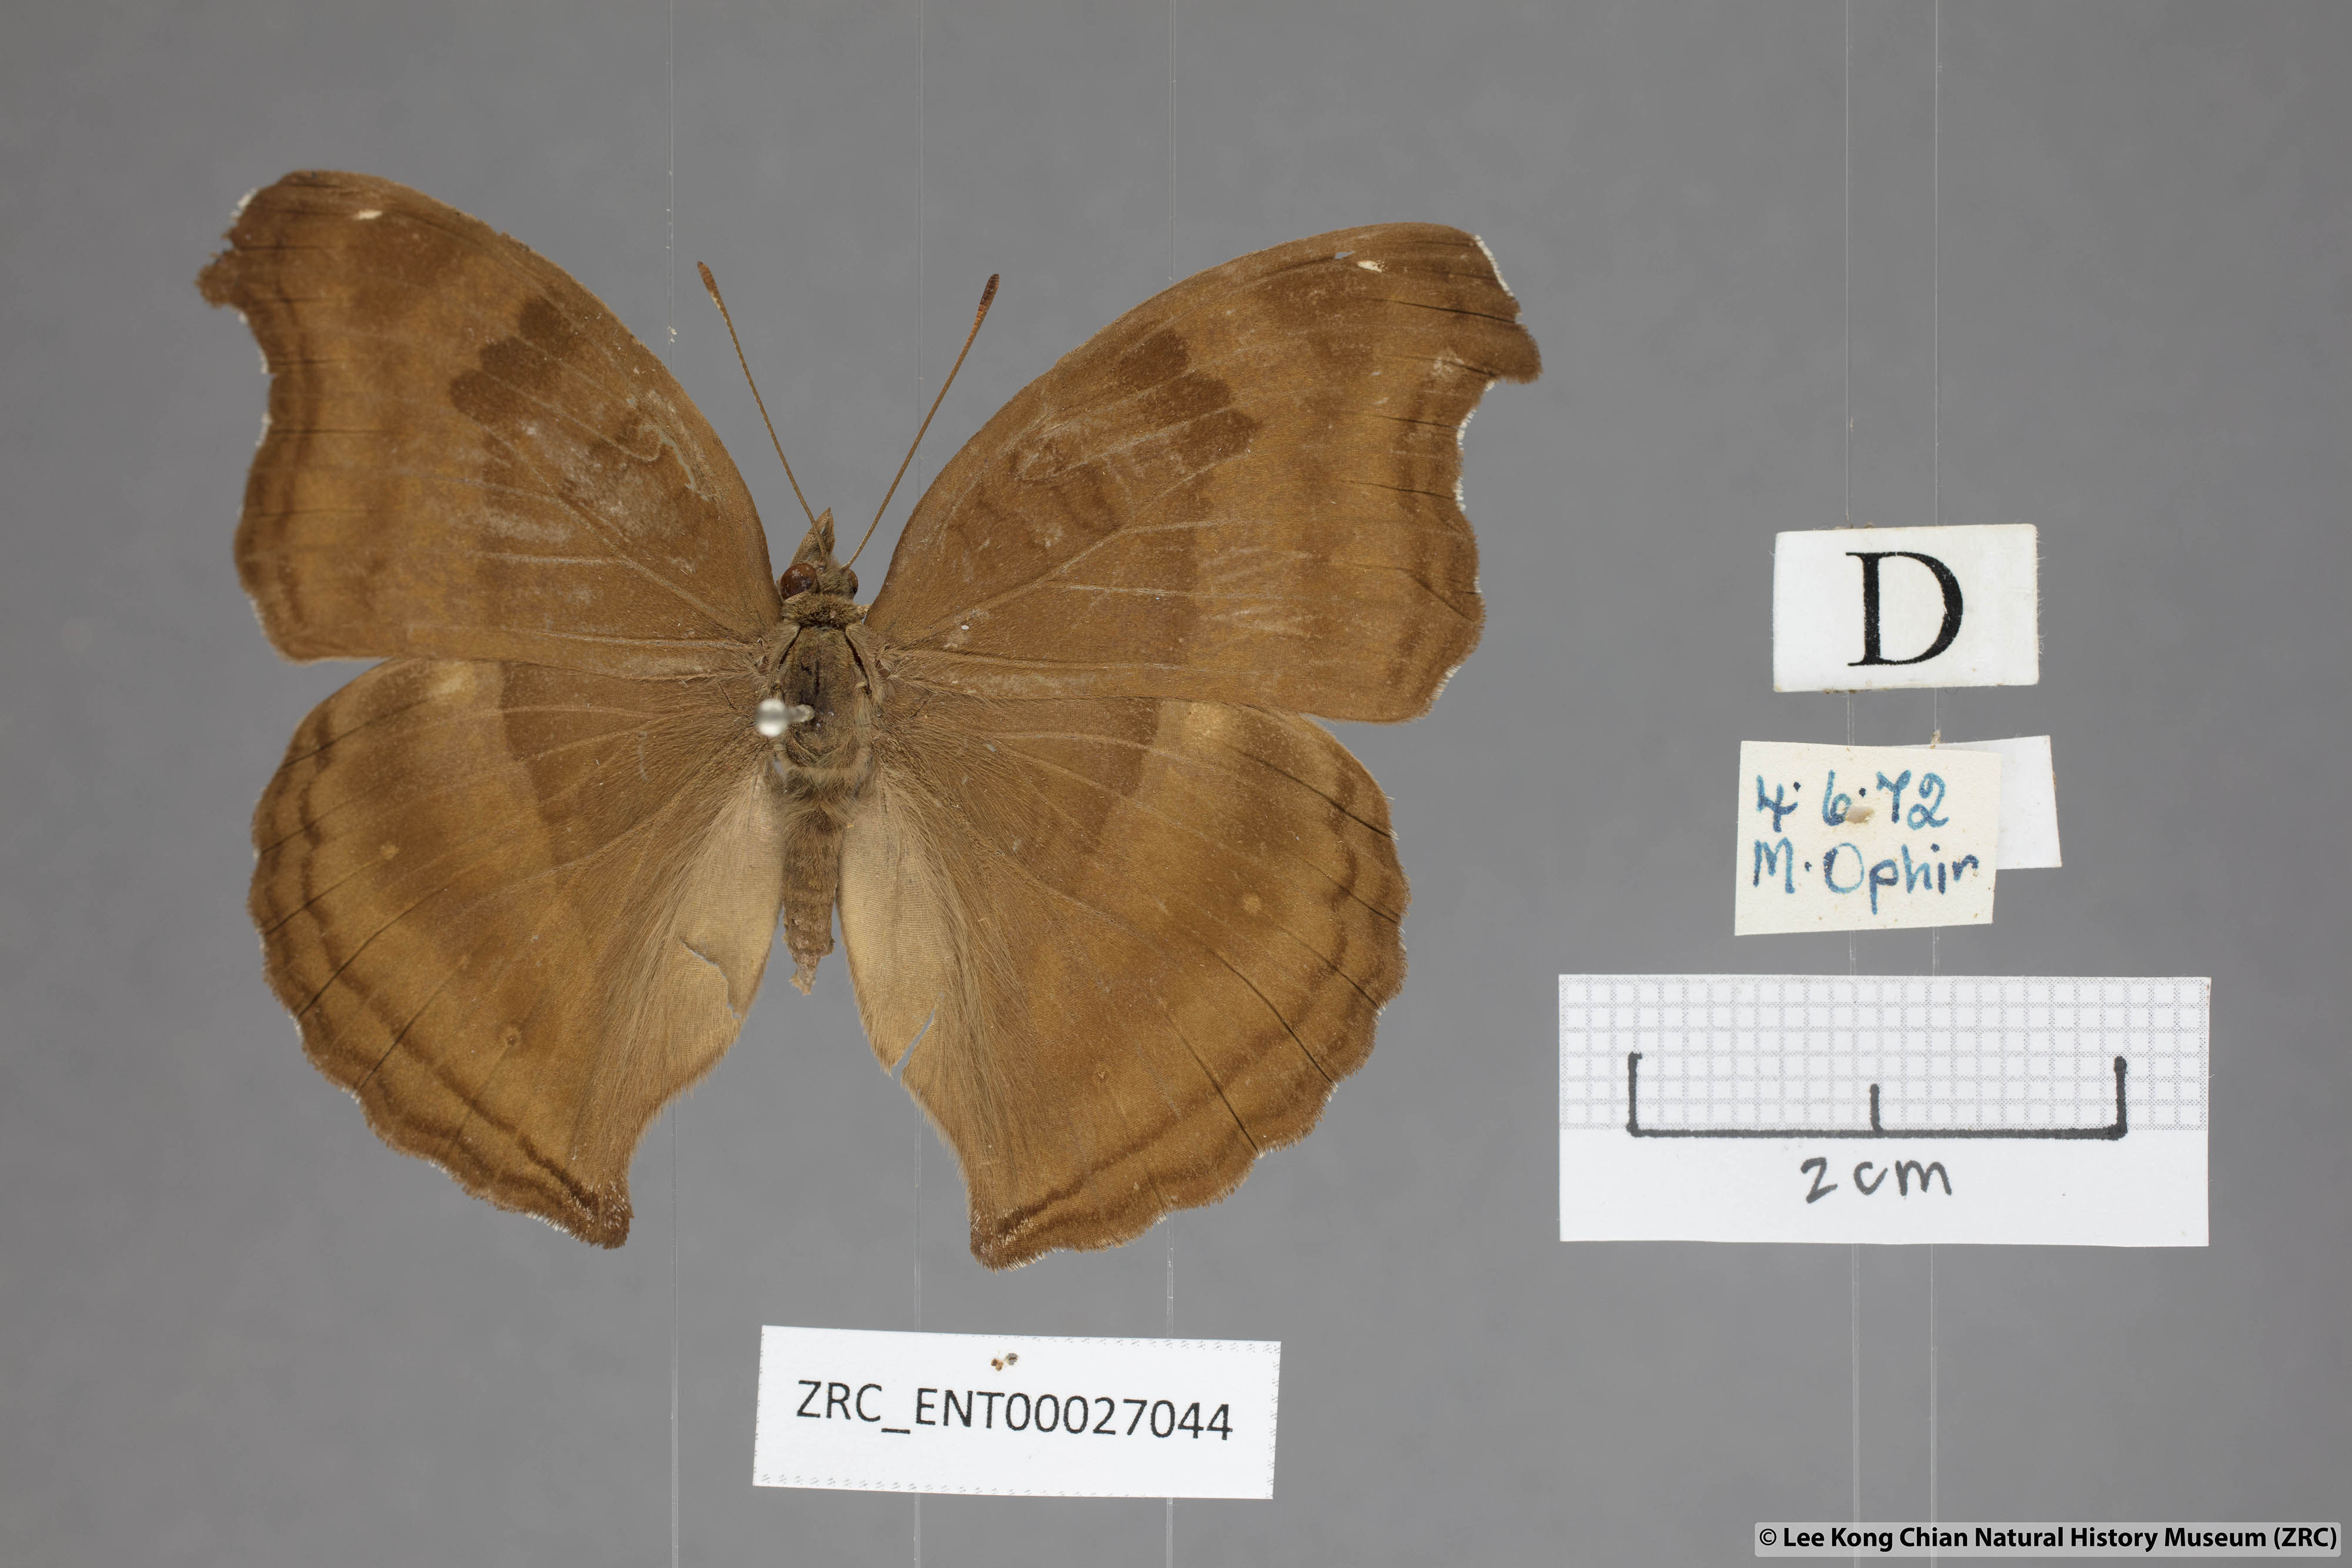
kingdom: Animalia
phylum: Arthropoda
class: Insecta
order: Lepidoptera
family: Nymphalidae
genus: Junonia
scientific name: Junonia iphita
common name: Chocolate pansy
